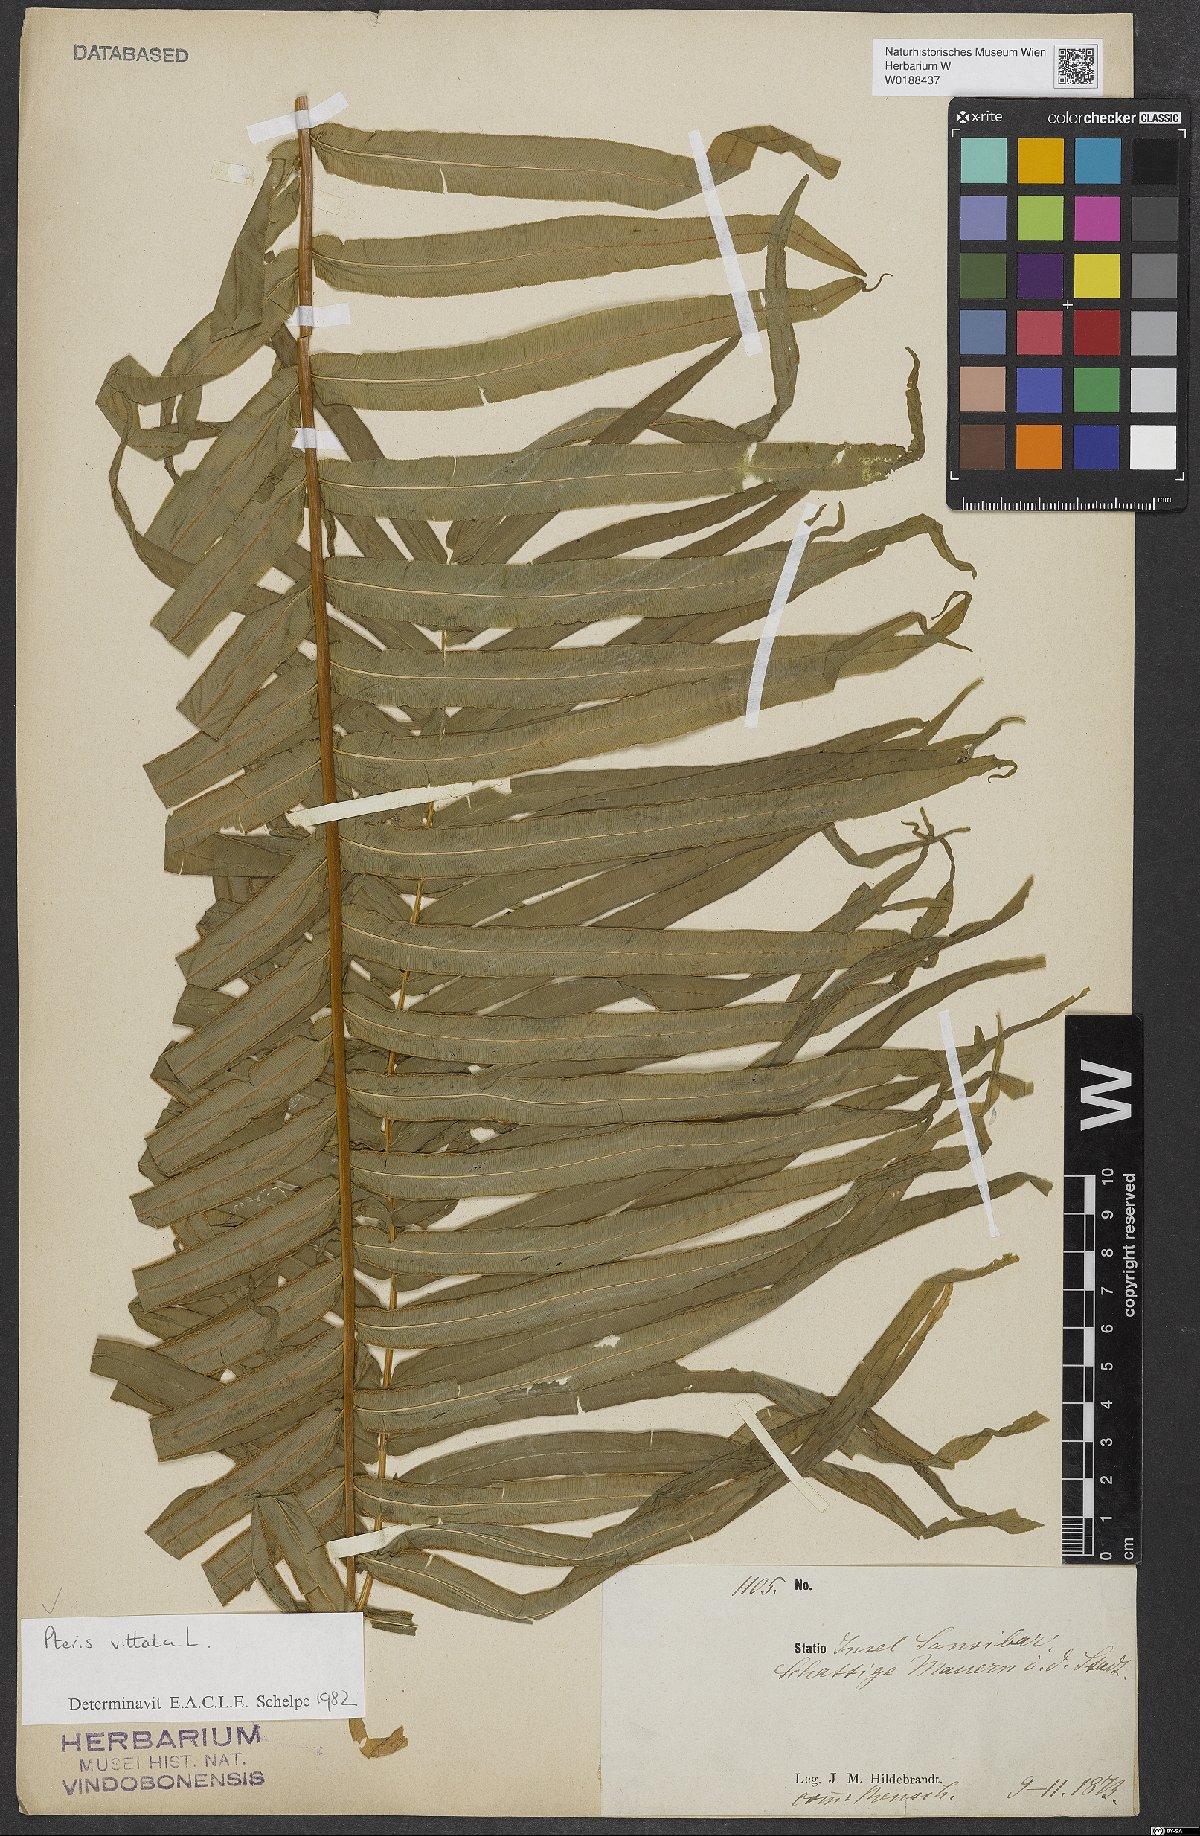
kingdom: Plantae
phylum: Tracheophyta
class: Polypodiopsida
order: Polypodiales
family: Pteridaceae
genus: Pteris
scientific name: Pteris vittata
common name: Ladder brake
